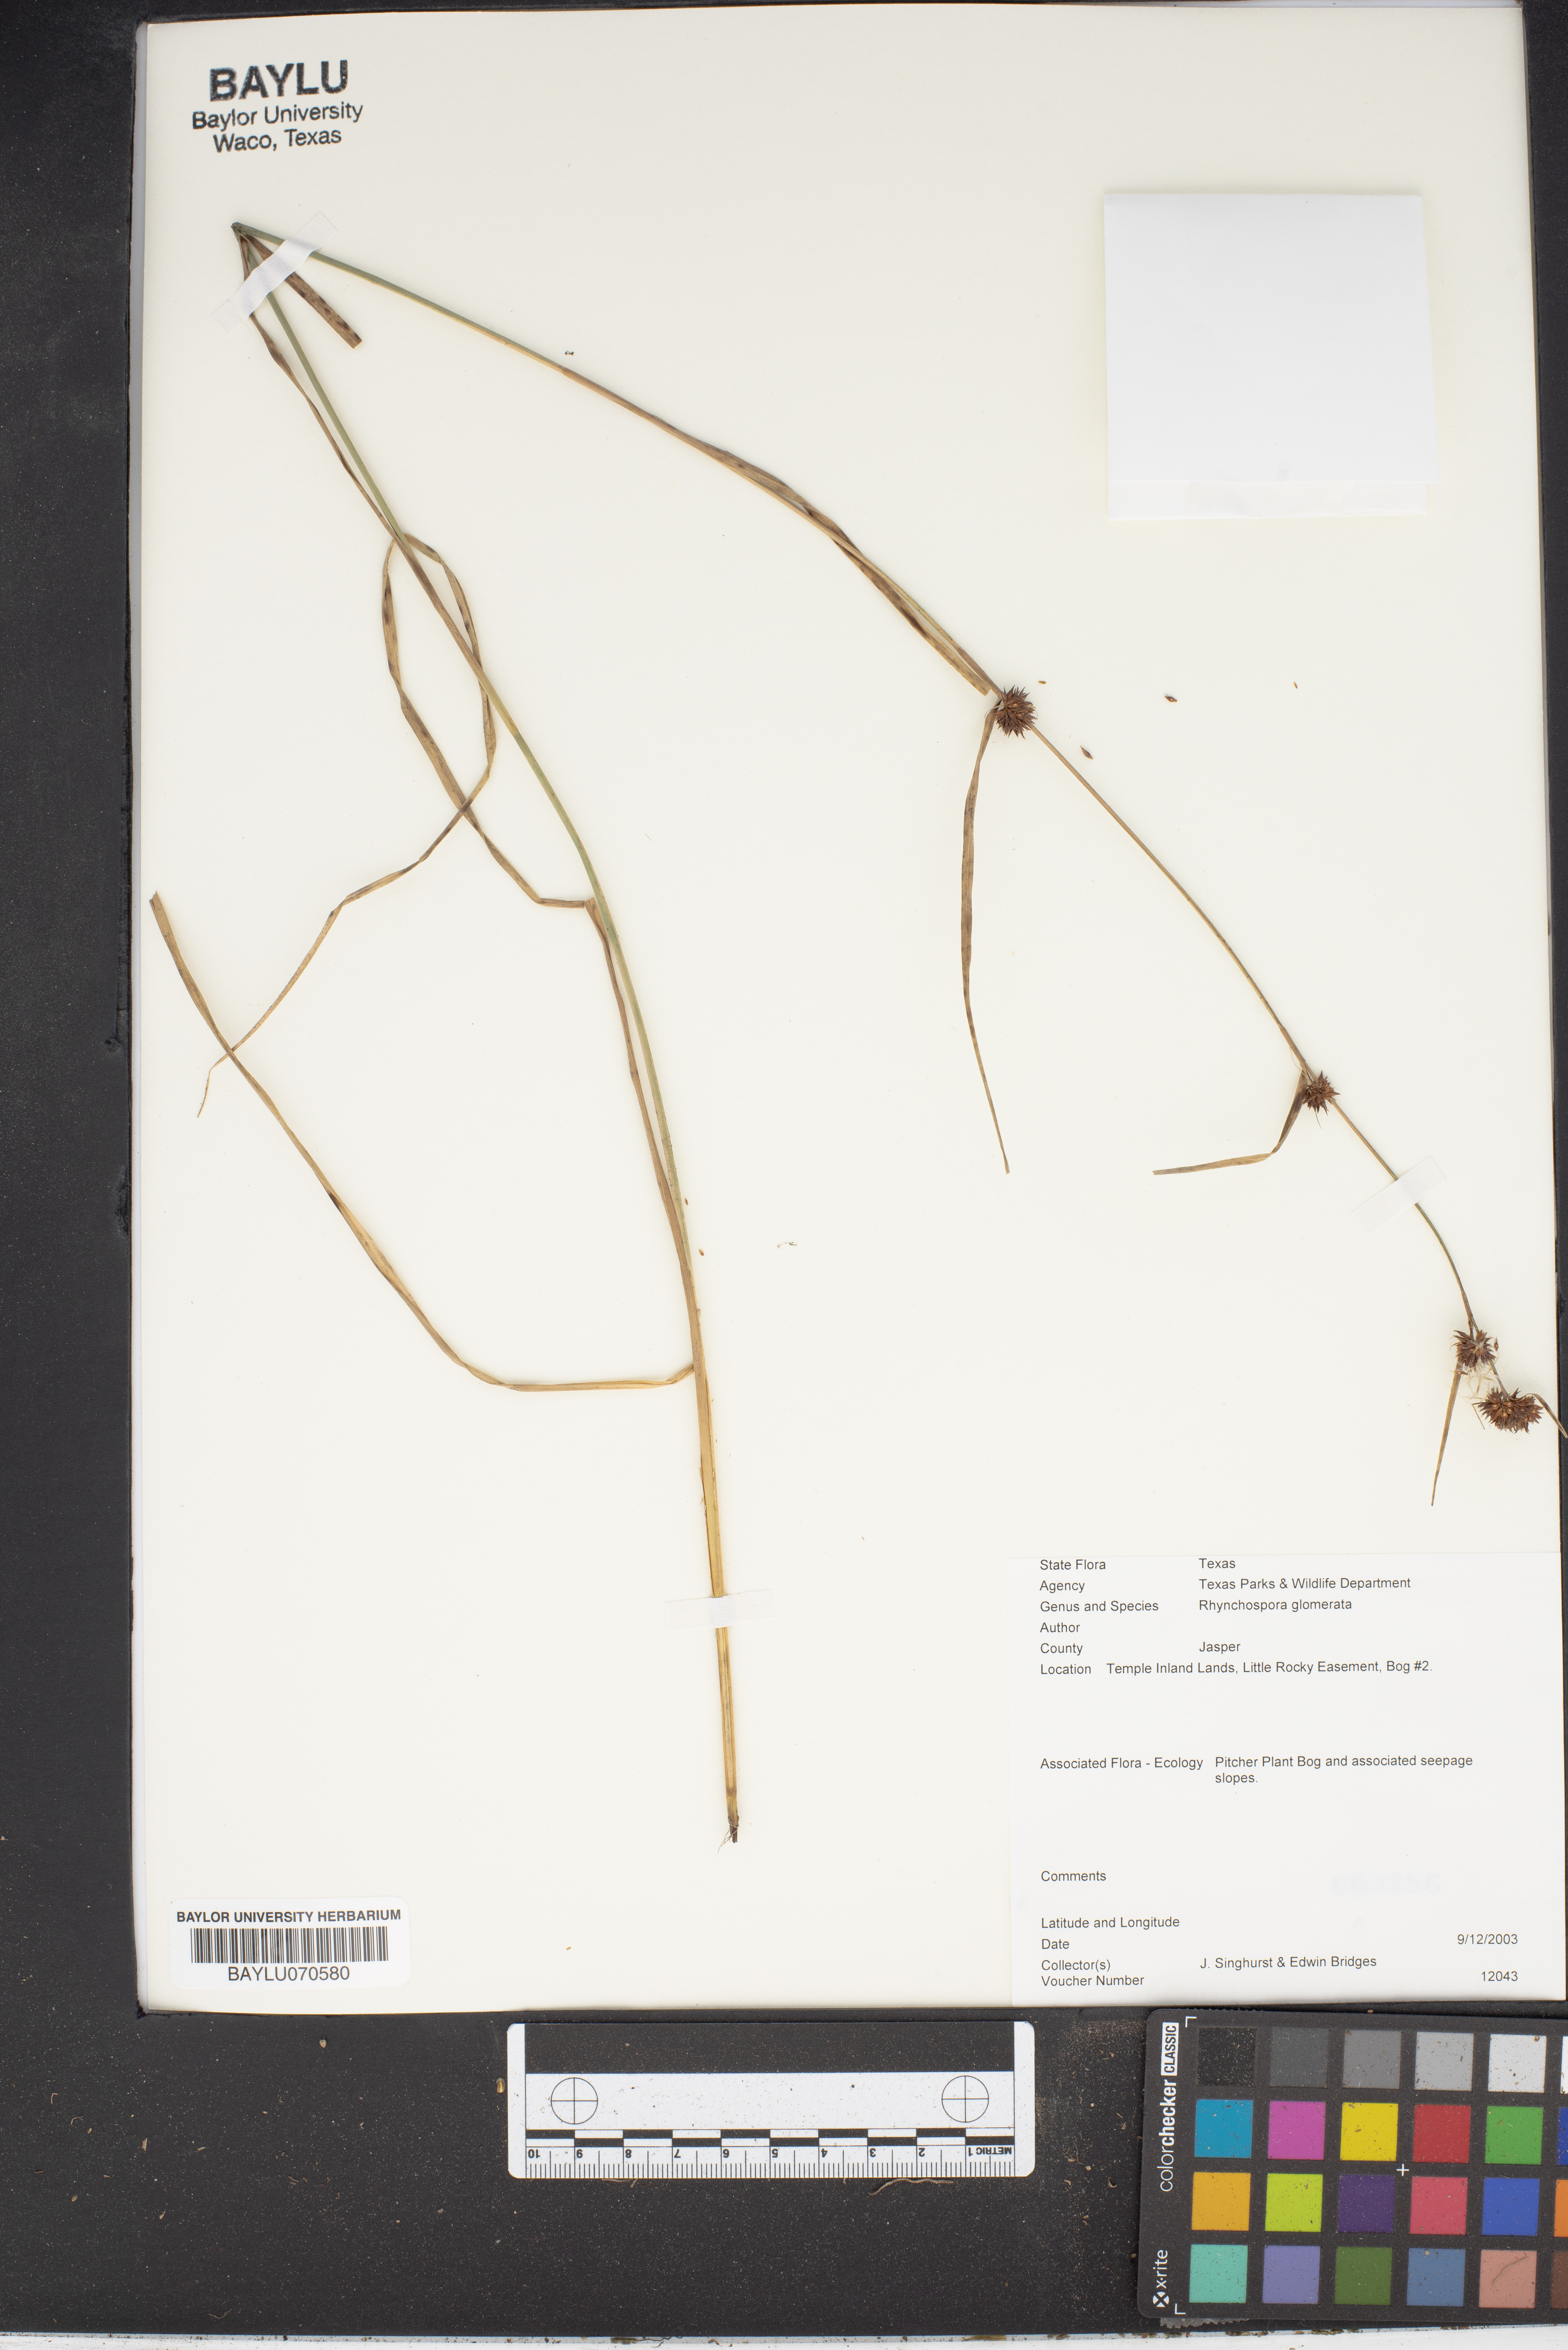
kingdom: Plantae
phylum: Tracheophyta
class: Liliopsida
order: Poales
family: Cyperaceae
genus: Rhynchospora
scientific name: Rhynchospora glomerata
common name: Cluster beak sedge
